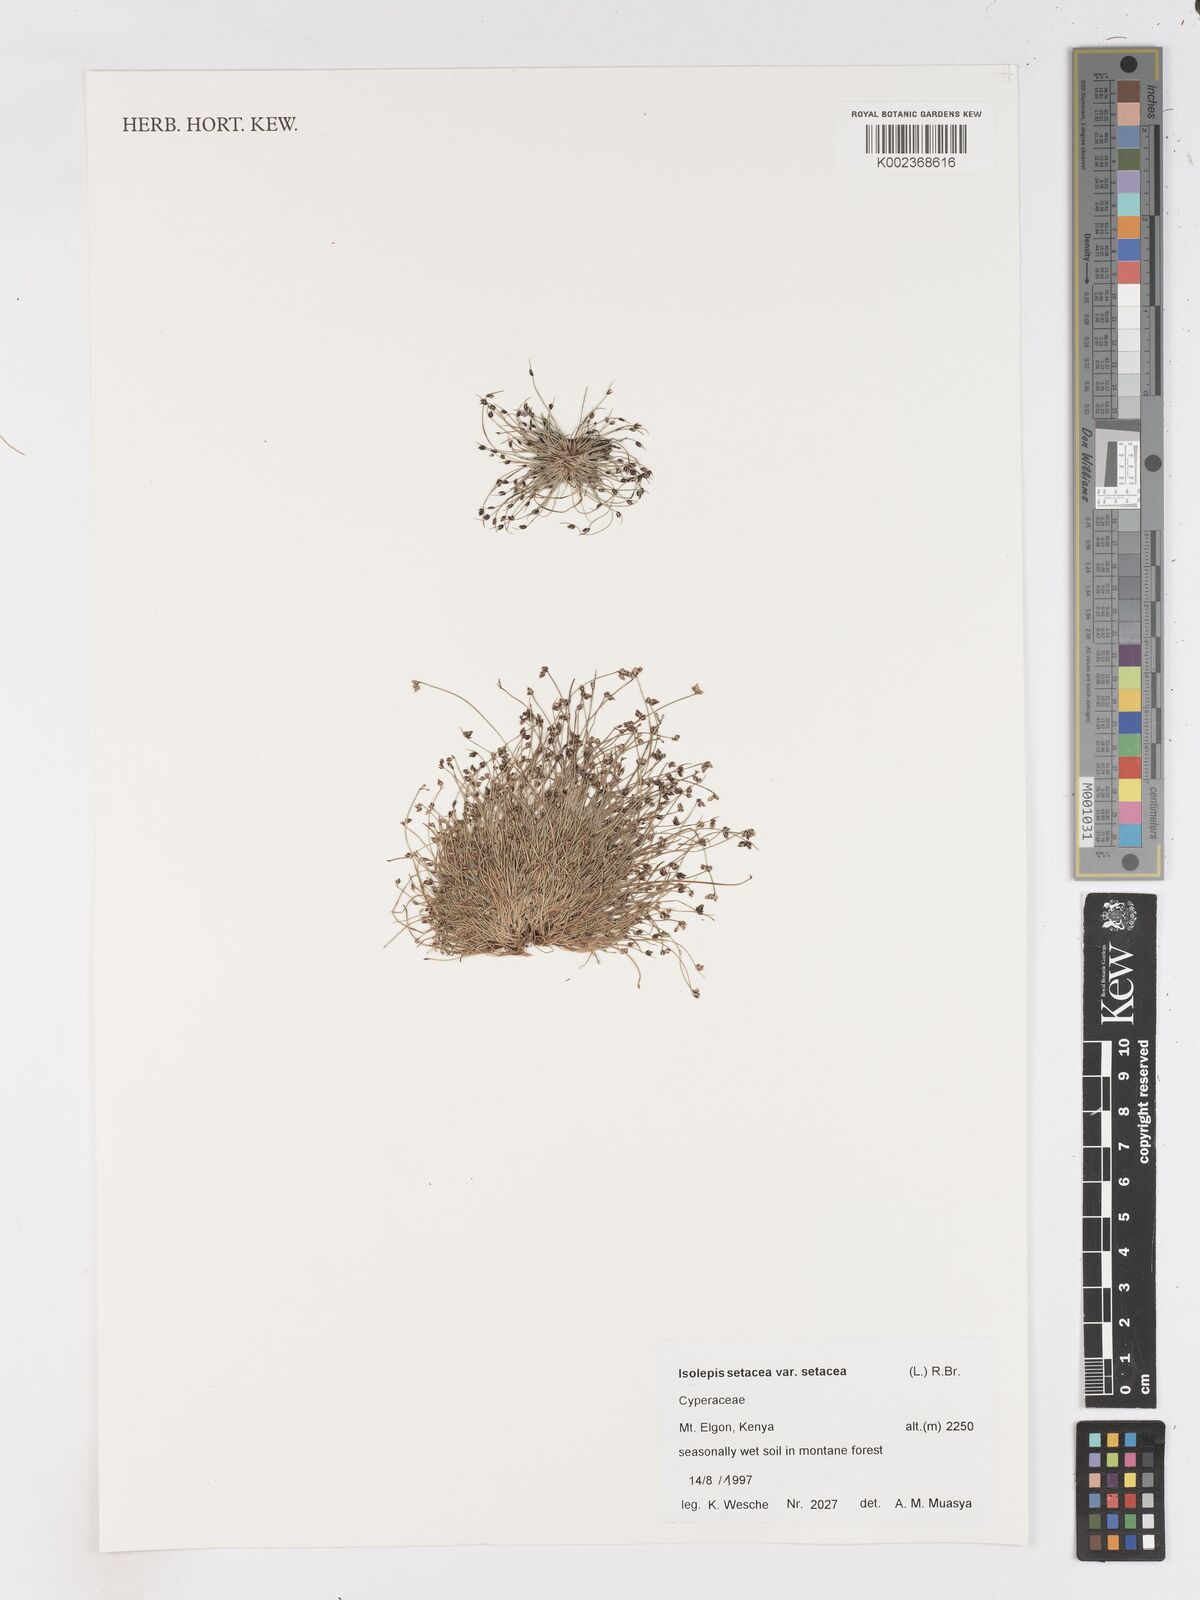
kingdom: Plantae
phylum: Tracheophyta
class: Liliopsida
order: Poales
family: Cyperaceae
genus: Isolepis
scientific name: Isolepis setacea
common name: Bristle club-rush
